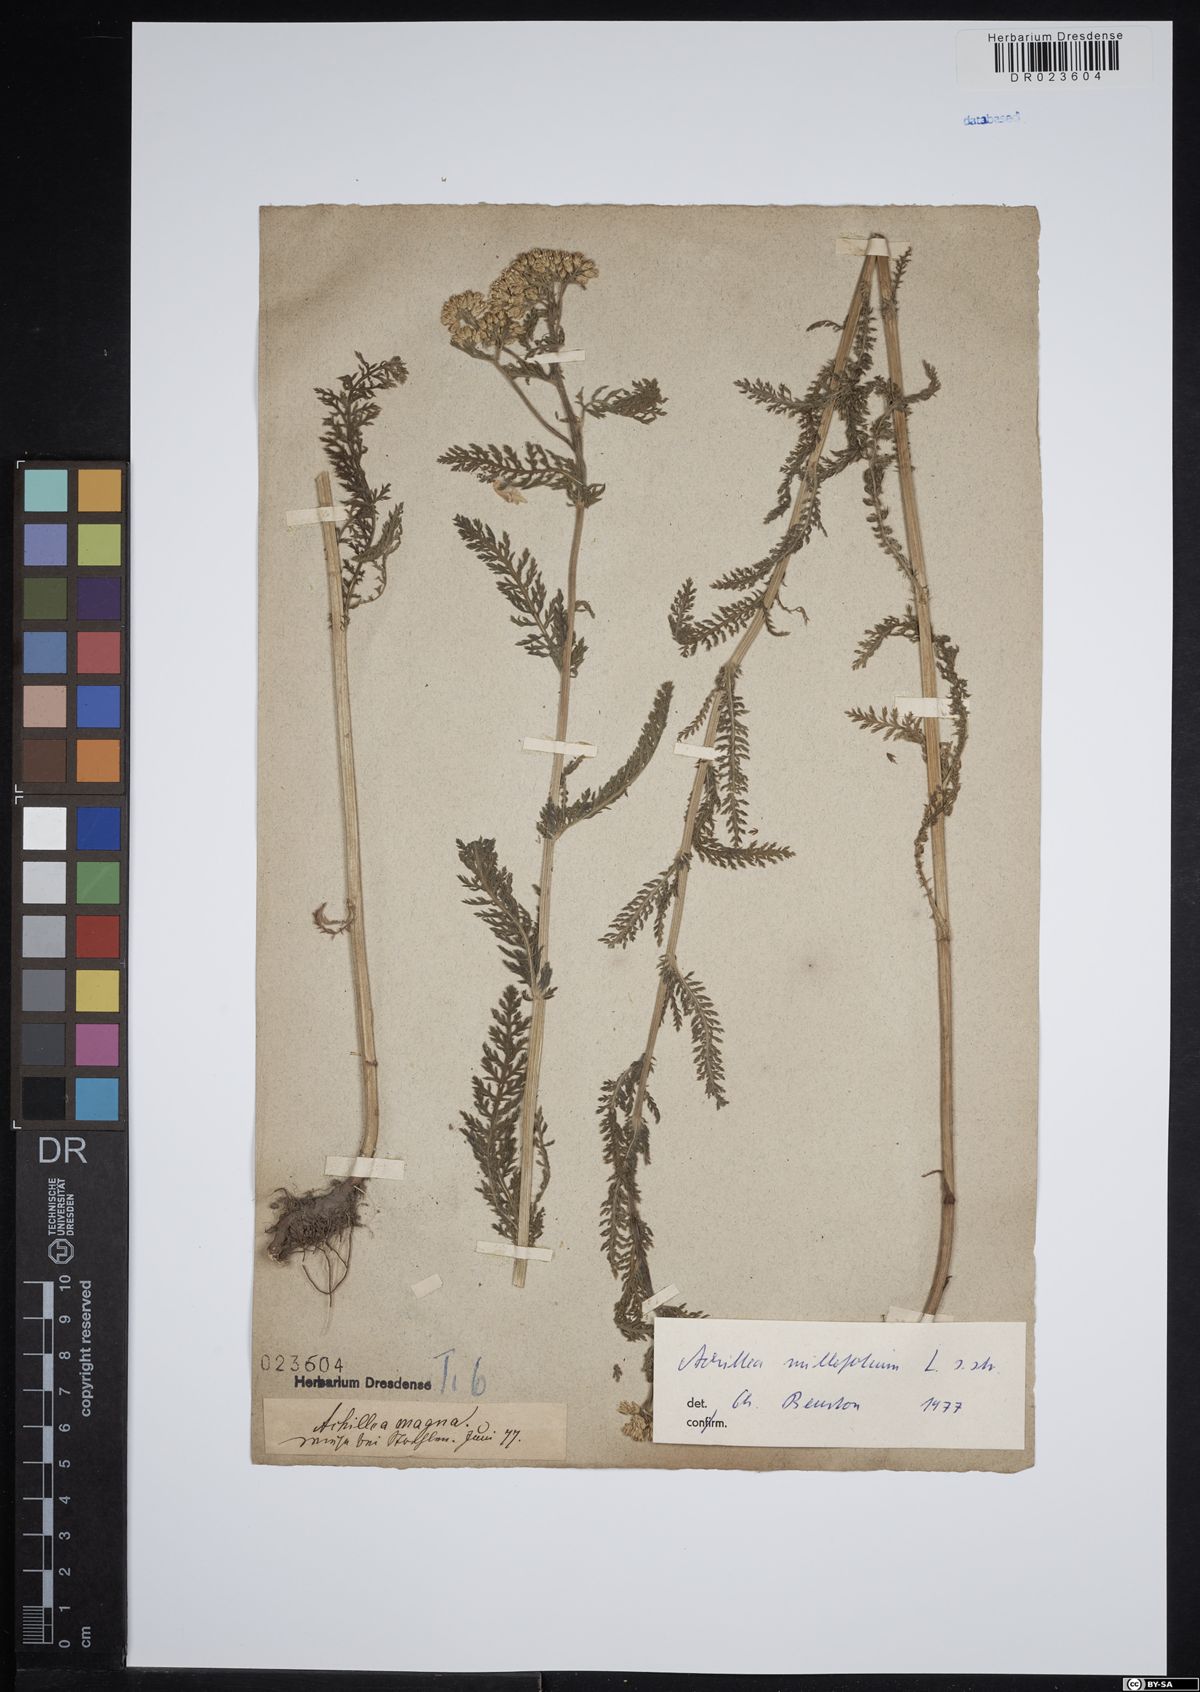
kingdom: Plantae
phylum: Tracheophyta
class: Magnoliopsida
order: Asterales
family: Asteraceae
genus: Achillea
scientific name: Achillea millefolium
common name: Yarrow
